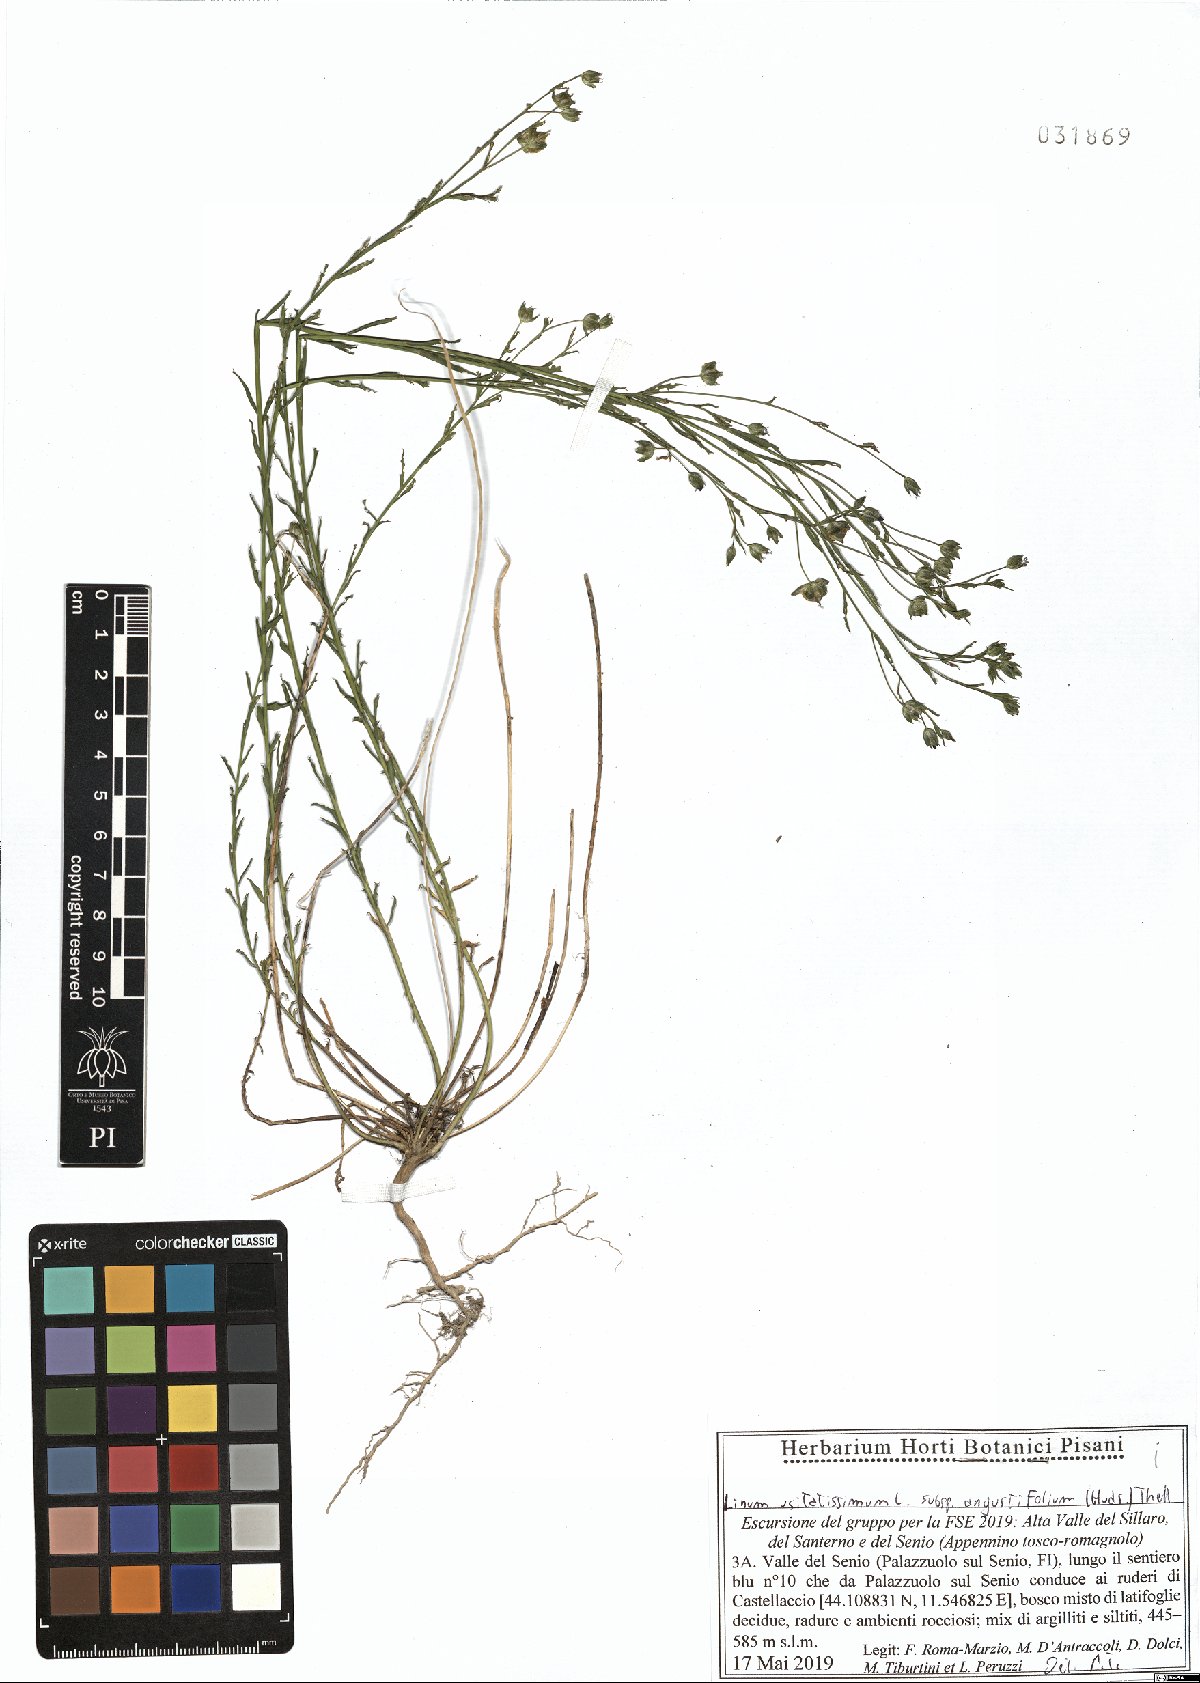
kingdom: Plantae
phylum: Tracheophyta
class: Magnoliopsida
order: Malpighiales
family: Linaceae
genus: Linum
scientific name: Linum bienne
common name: Pale flax
